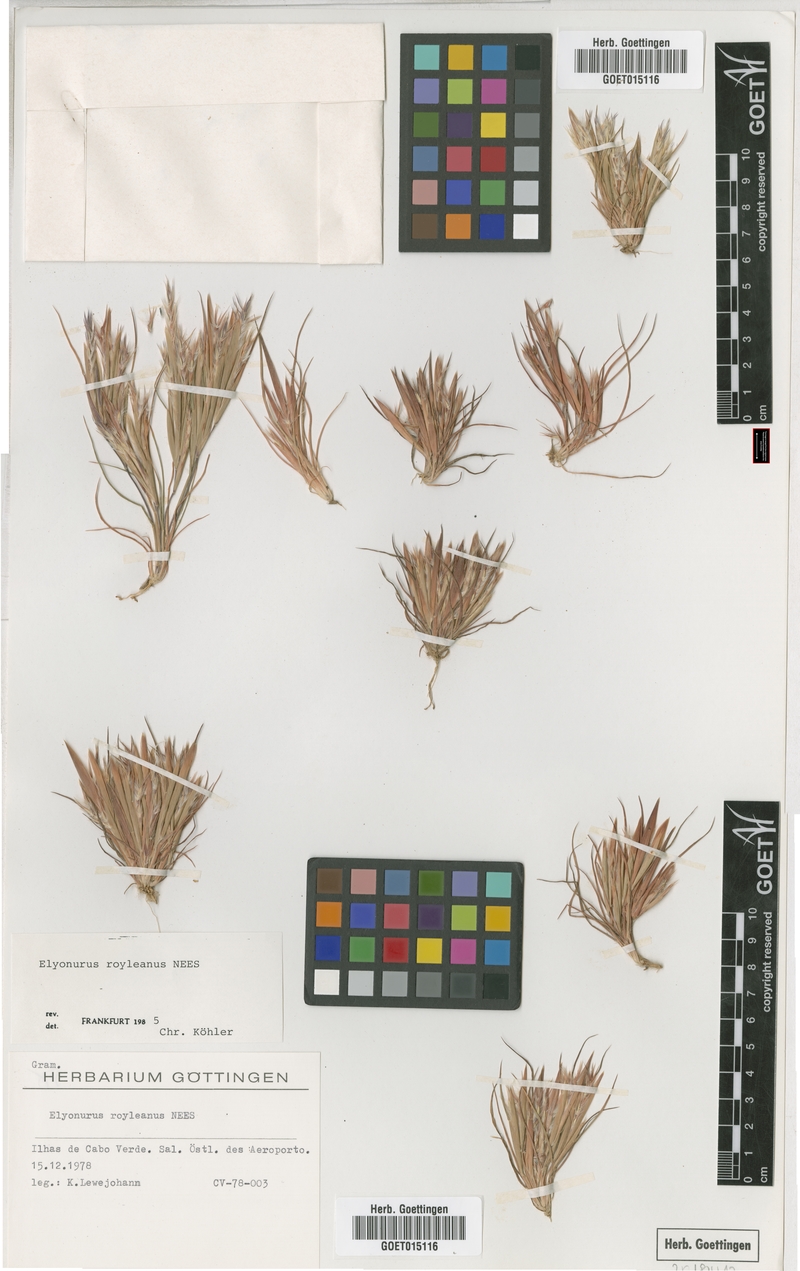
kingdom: Plantae
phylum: Tracheophyta
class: Liliopsida
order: Poales
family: Poaceae
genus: Elionurus
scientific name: Elionurus royleanus
